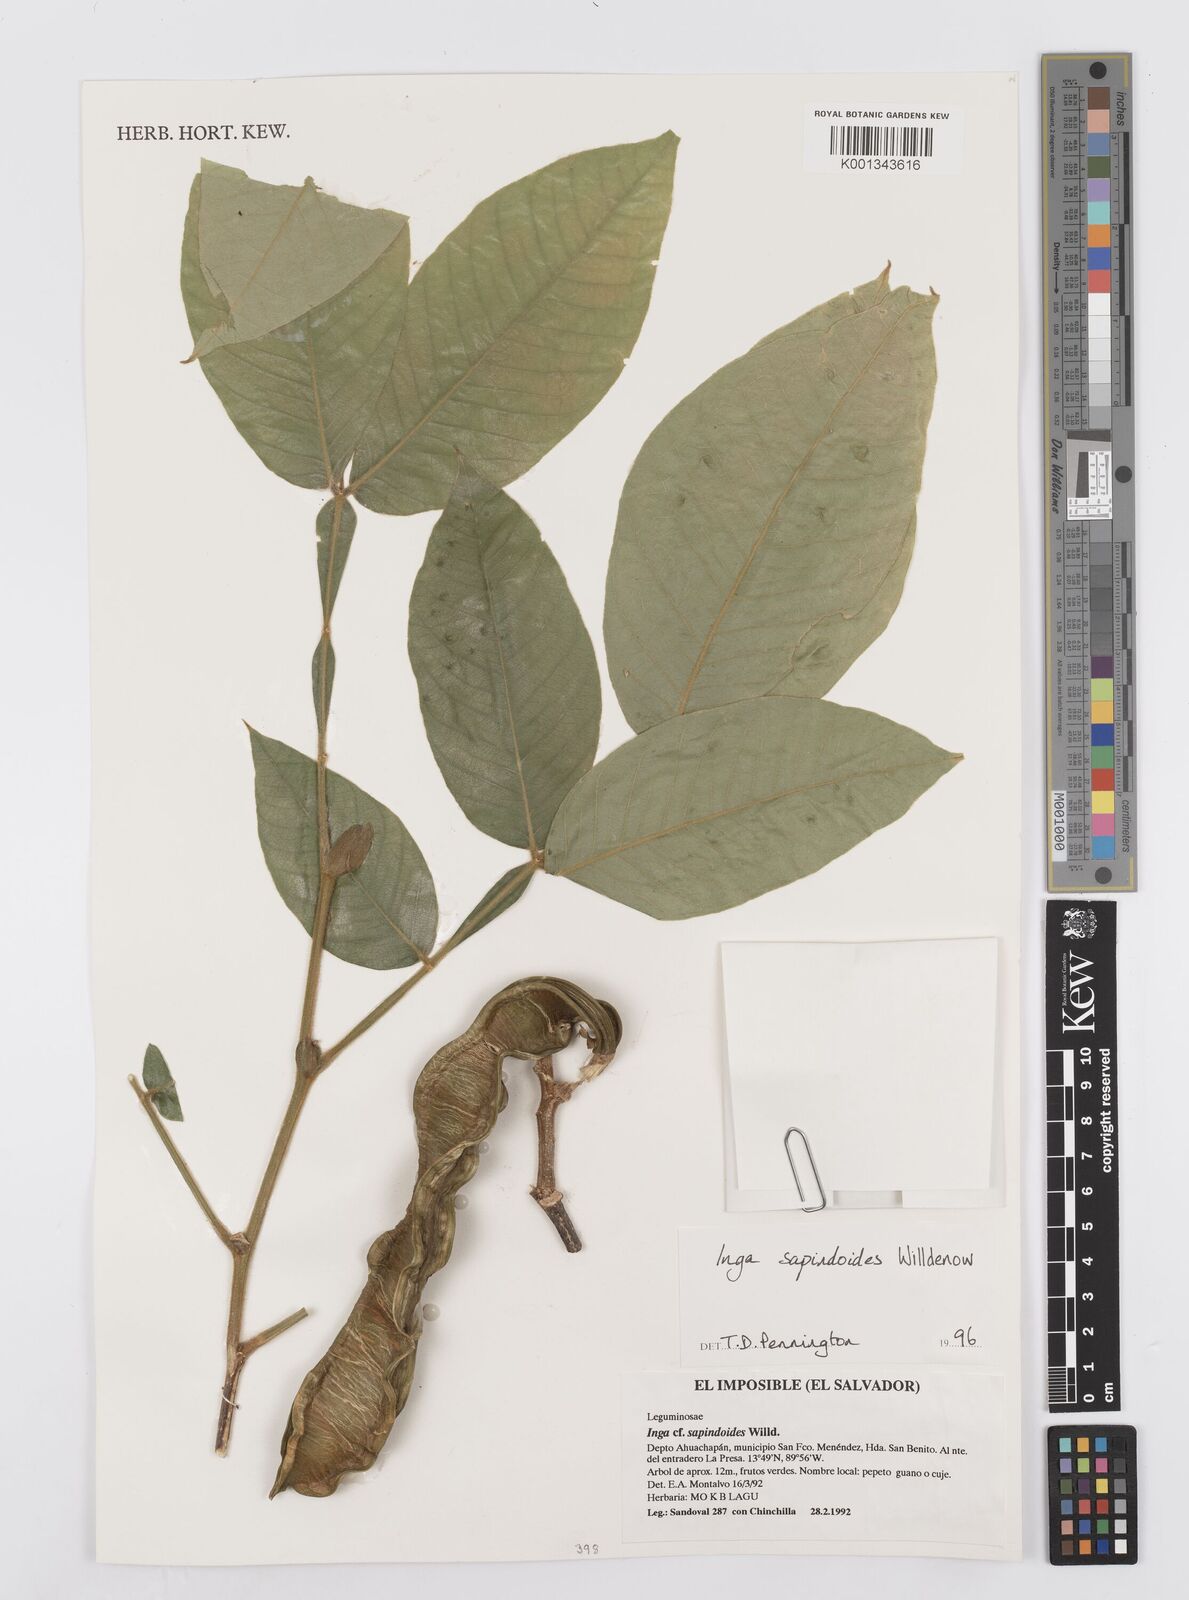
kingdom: Plantae
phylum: Tracheophyta
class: Magnoliopsida
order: Fabales
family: Fabaceae
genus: Inga
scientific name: Inga sapindoides
